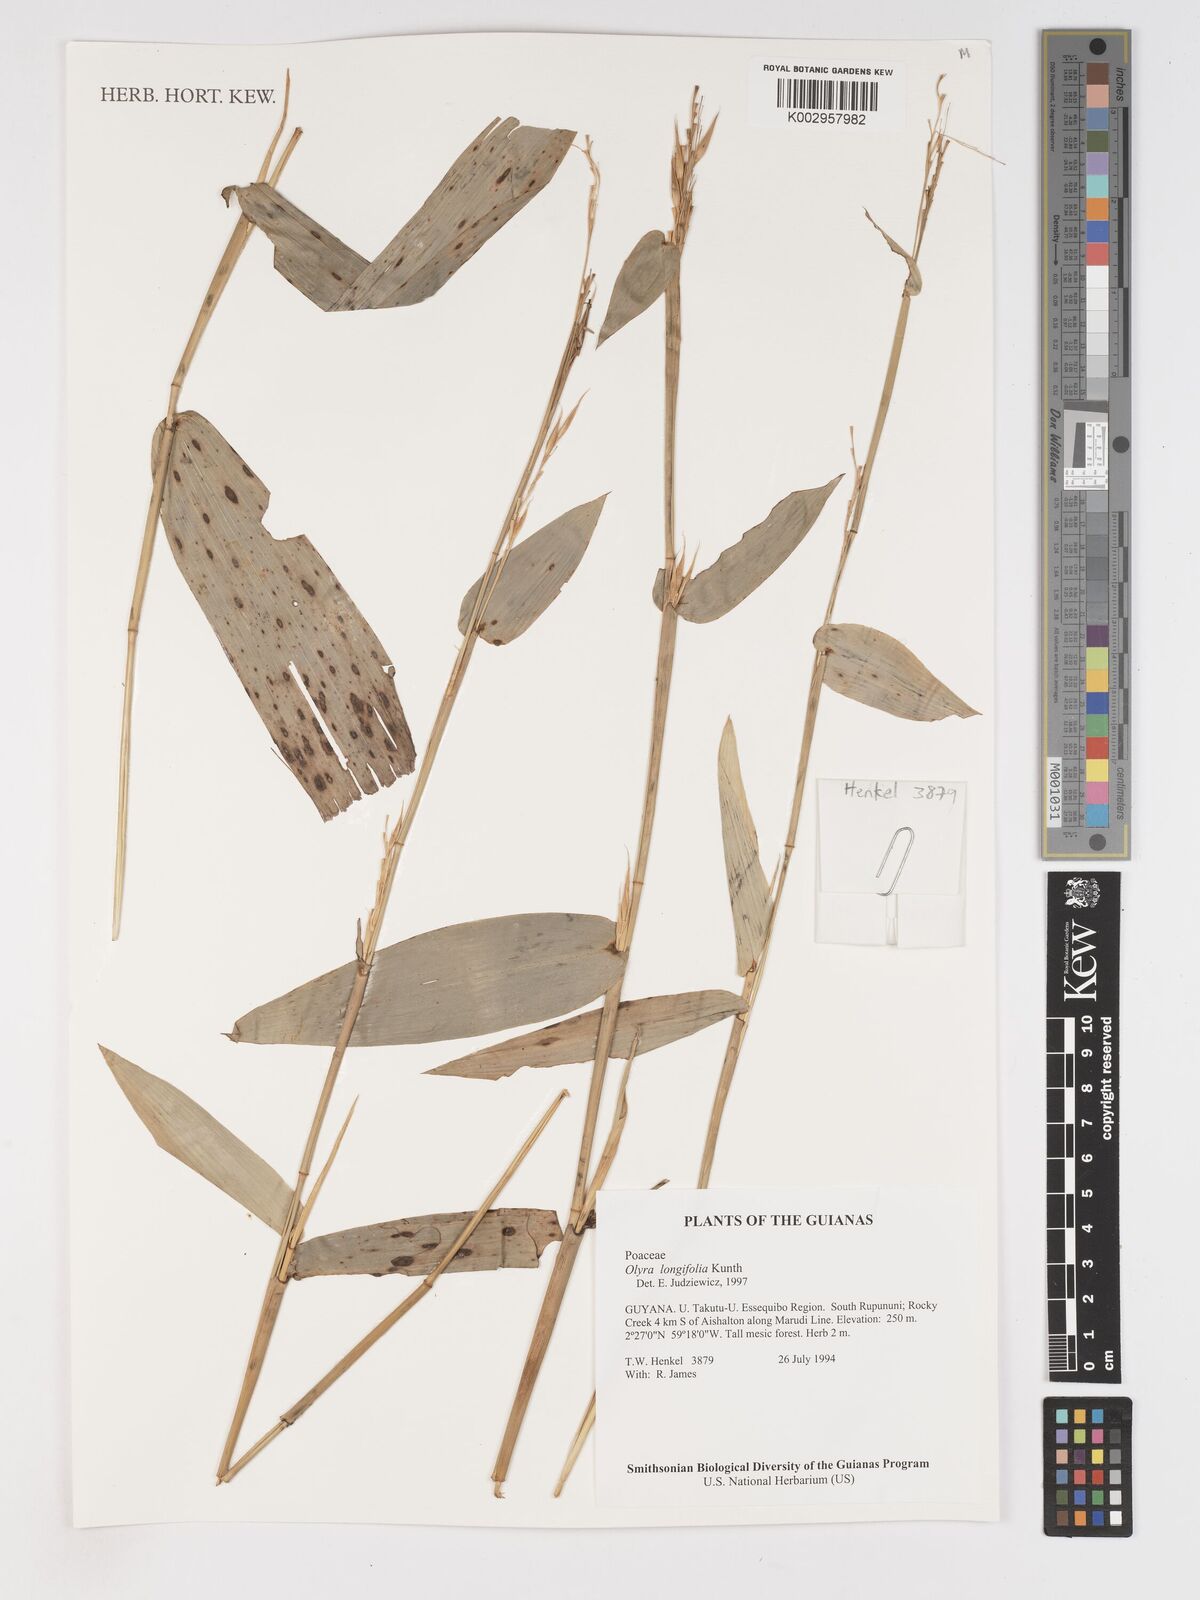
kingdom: Plantae
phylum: Tracheophyta
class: Liliopsida
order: Poales
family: Poaceae
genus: Olyra
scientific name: Olyra longifolia
